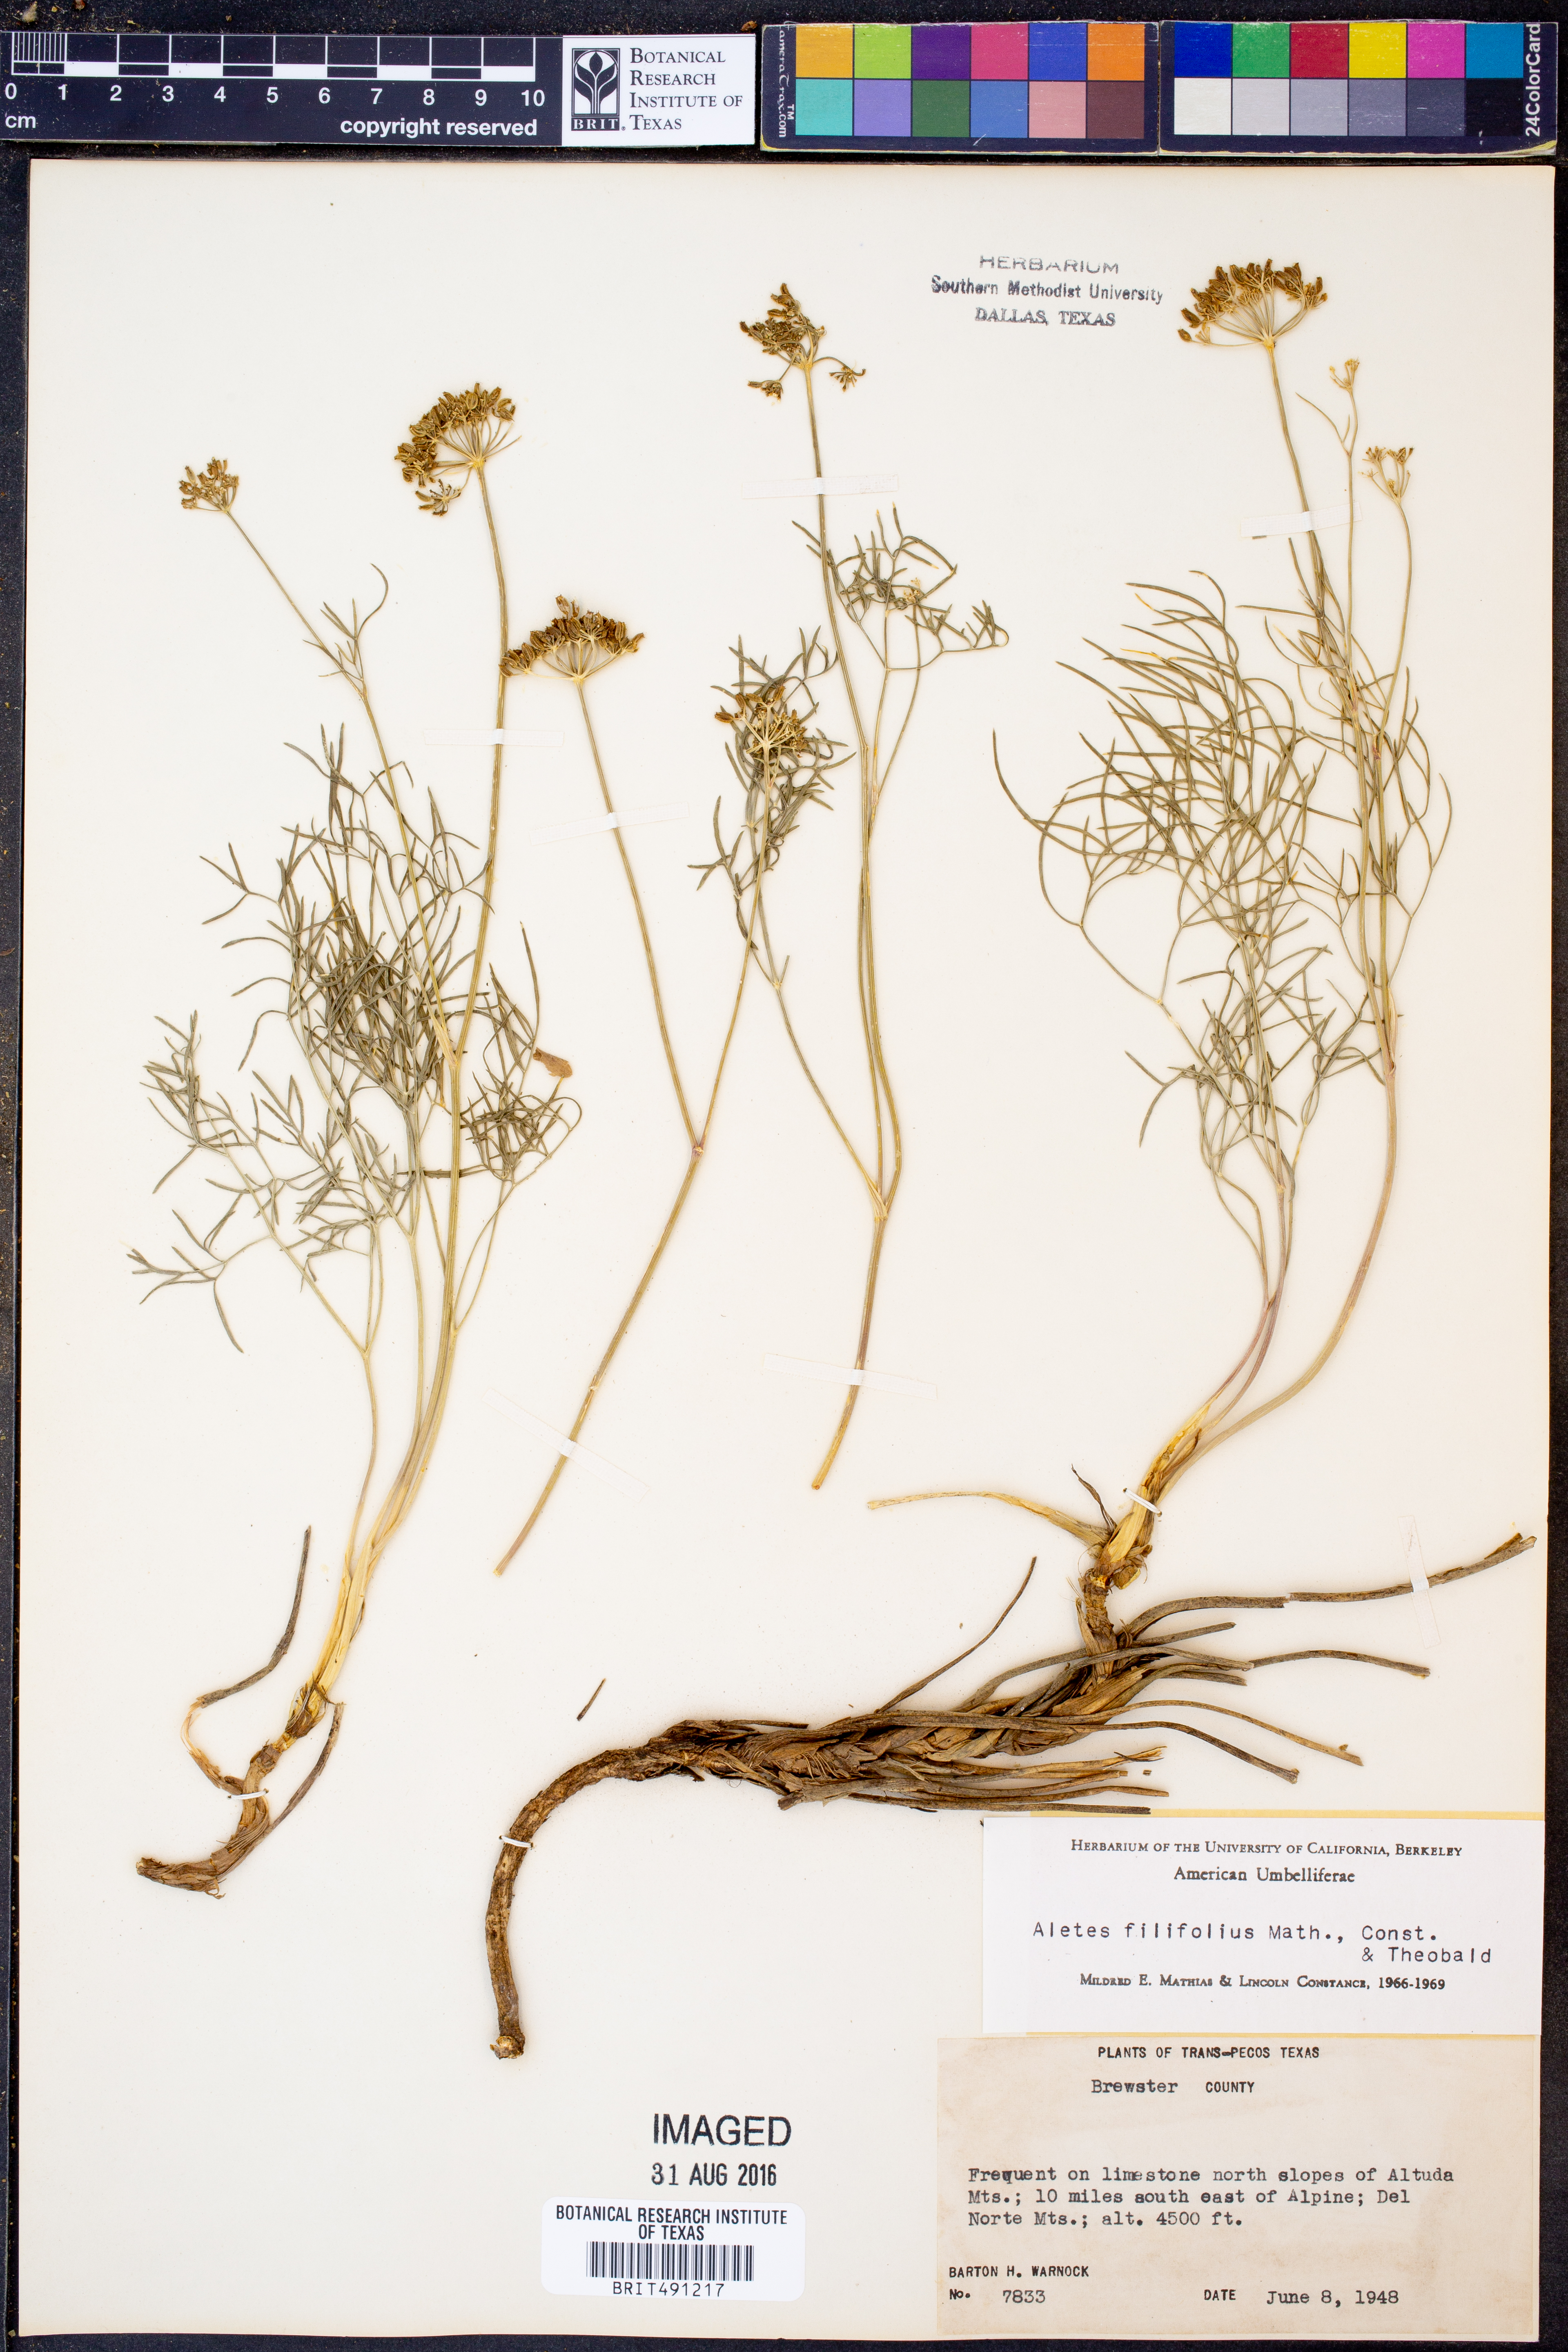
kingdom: Plantae
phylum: Tracheophyta
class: Magnoliopsida
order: Apiales
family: Apiaceae
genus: Cymopterus
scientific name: Cymopterus filifolius
